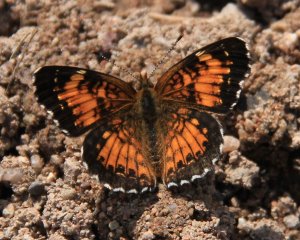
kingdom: Animalia
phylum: Arthropoda
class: Insecta
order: Lepidoptera
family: Nymphalidae
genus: Chlosyne
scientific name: Chlosyne harrisii
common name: Harris's Checkerspot
